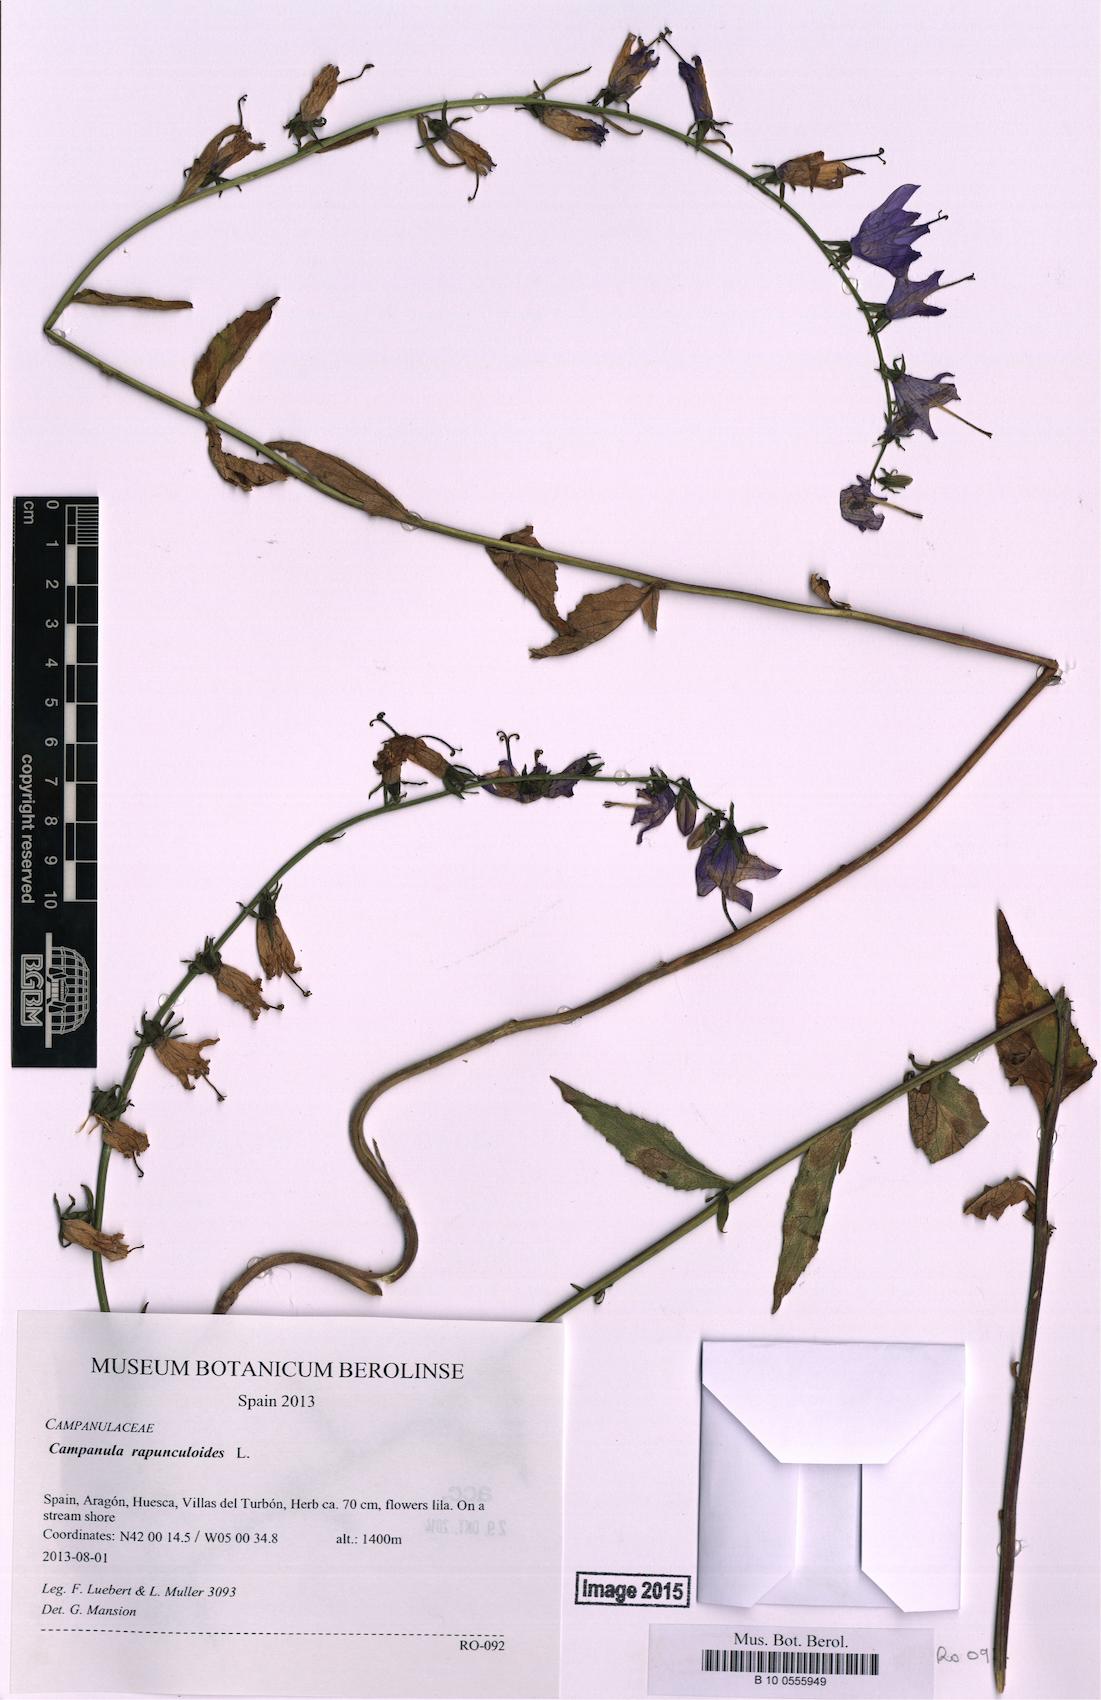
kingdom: Plantae
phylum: Tracheophyta
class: Magnoliopsida
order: Asterales
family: Campanulaceae
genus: Campanula
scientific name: Campanula rapunculoides
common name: Creeping bellflower
